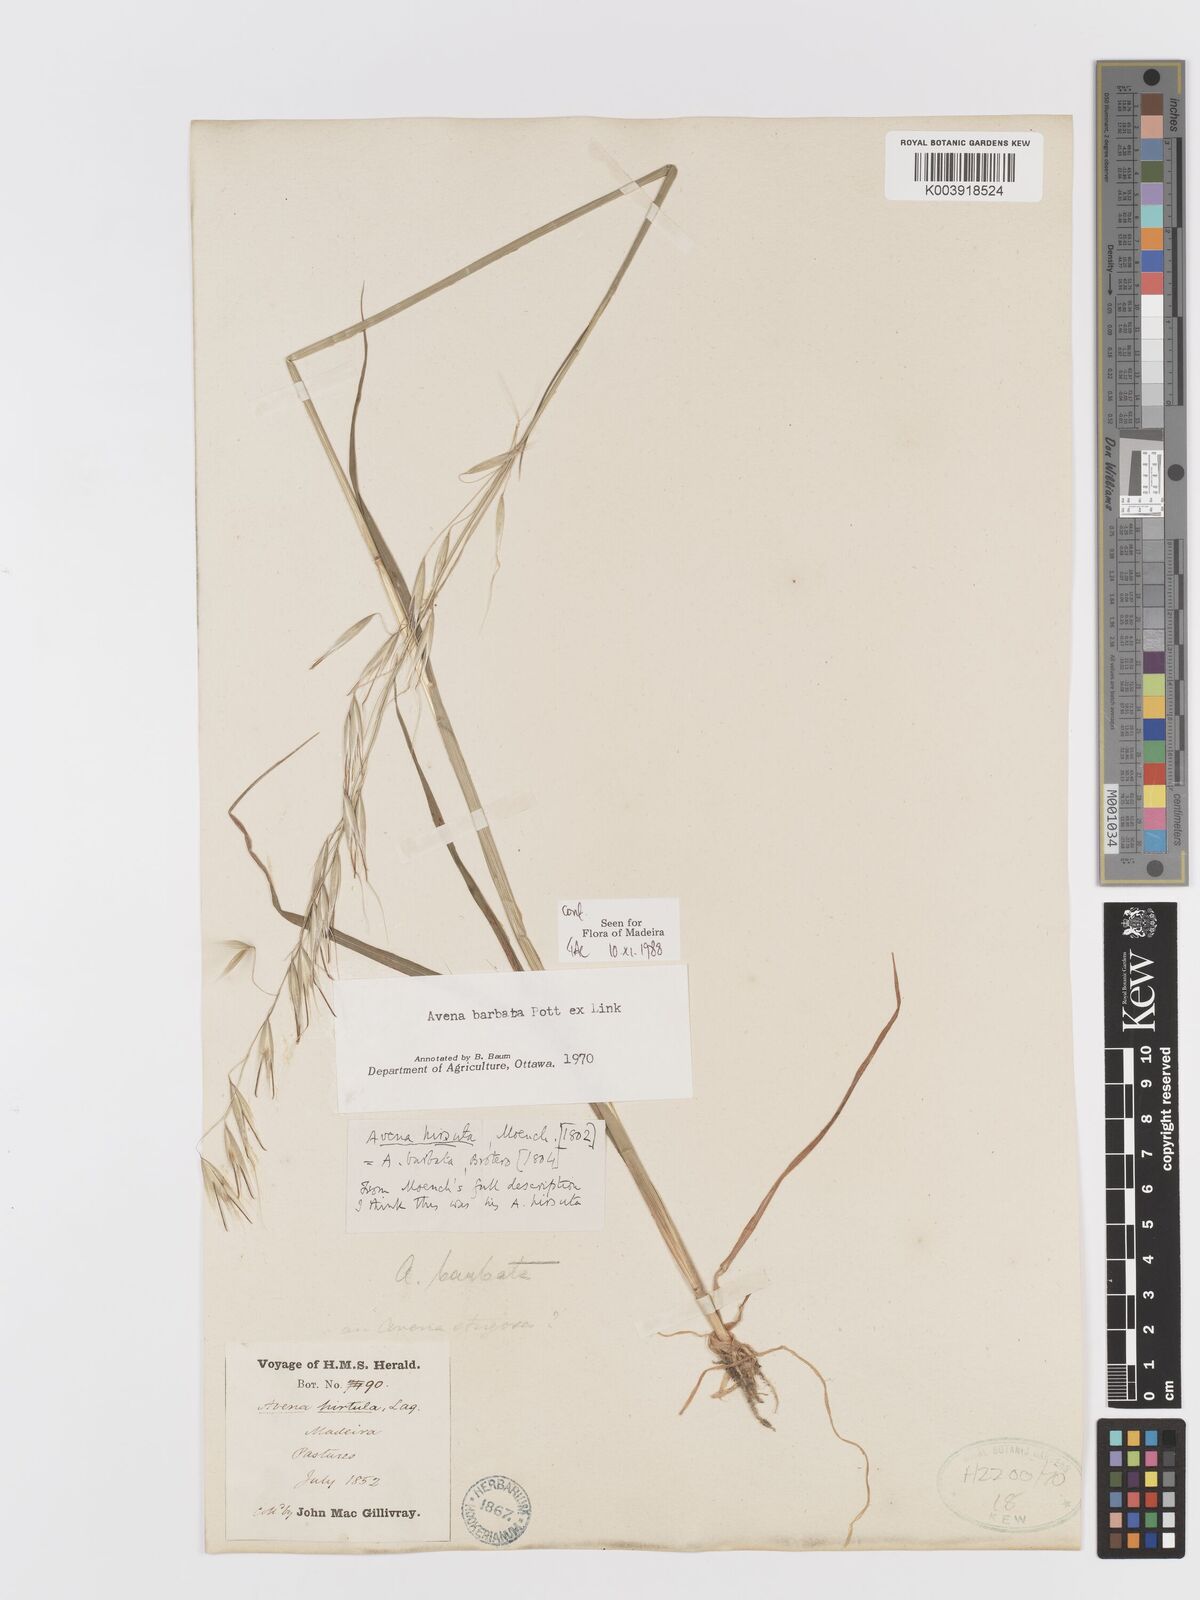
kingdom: Plantae
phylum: Tracheophyta
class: Liliopsida
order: Poales
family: Poaceae
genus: Avena
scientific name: Avena
